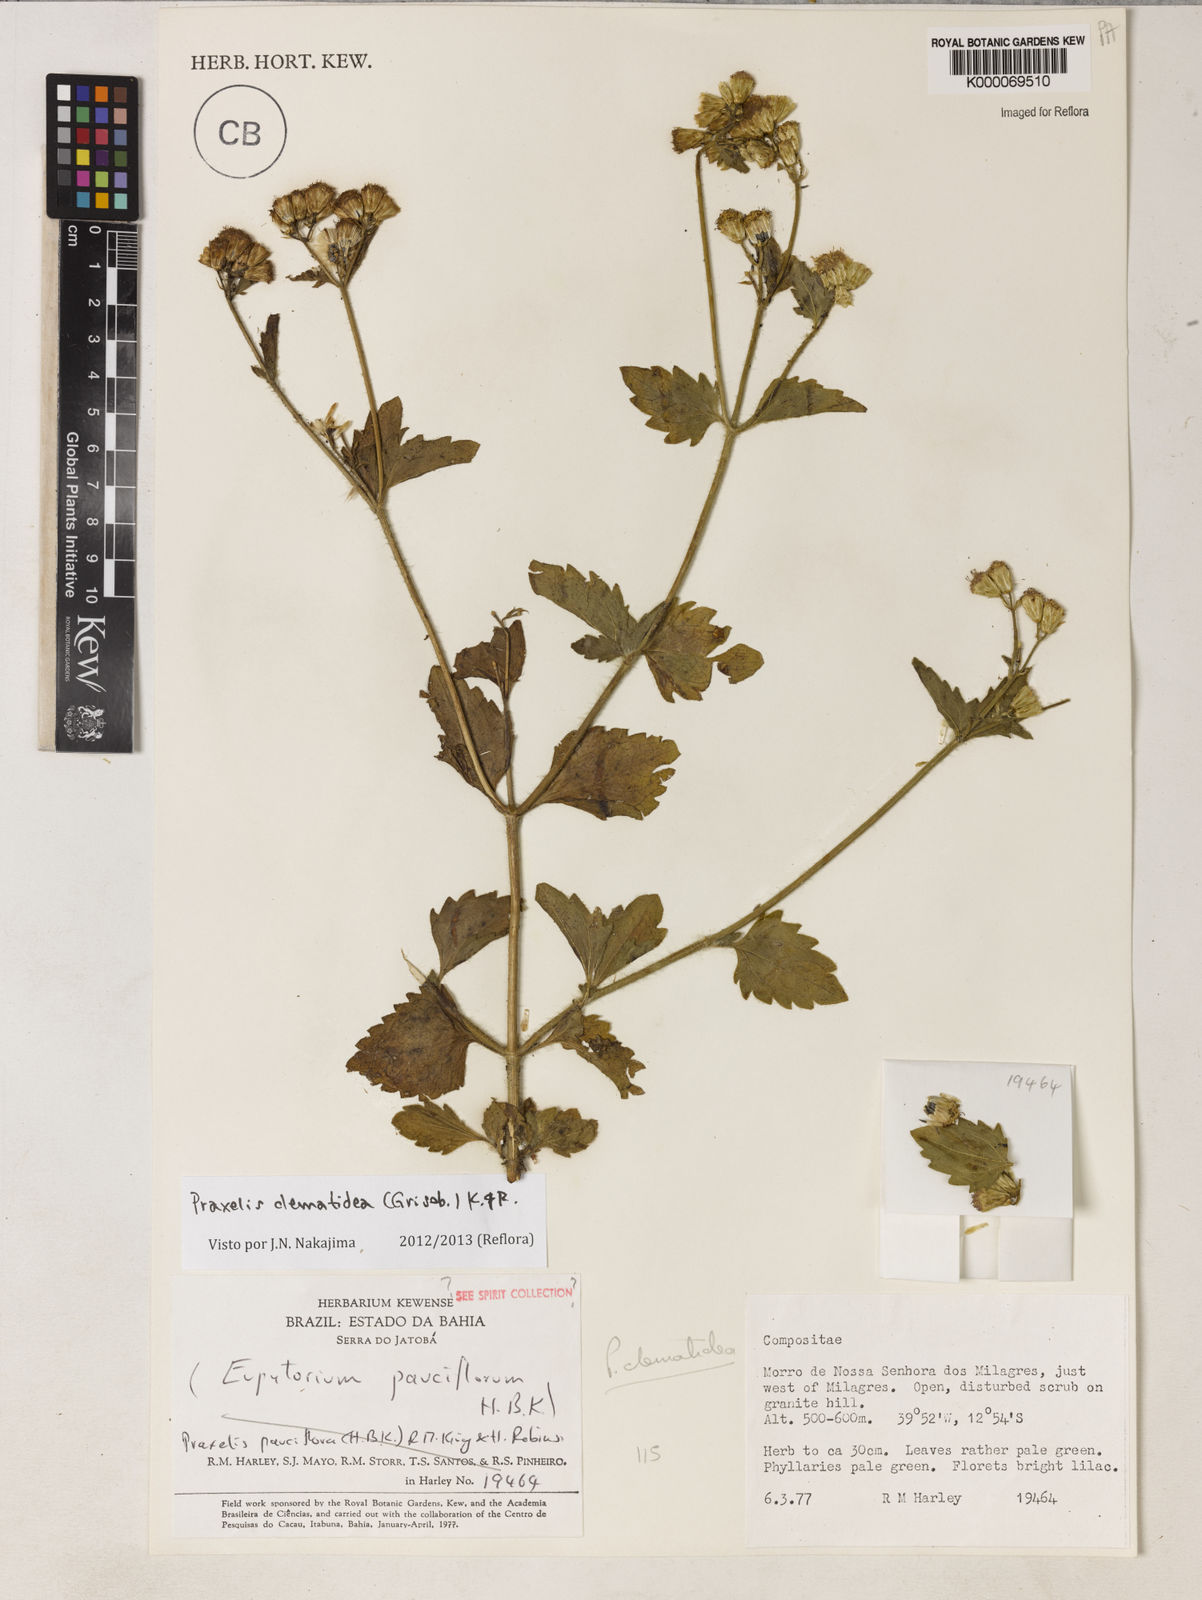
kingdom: Plantae
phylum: Tracheophyta
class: Magnoliopsida
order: Asterales
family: Asteraceae
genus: Praxelis
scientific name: Praxelis clematidea
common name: Praxelis
